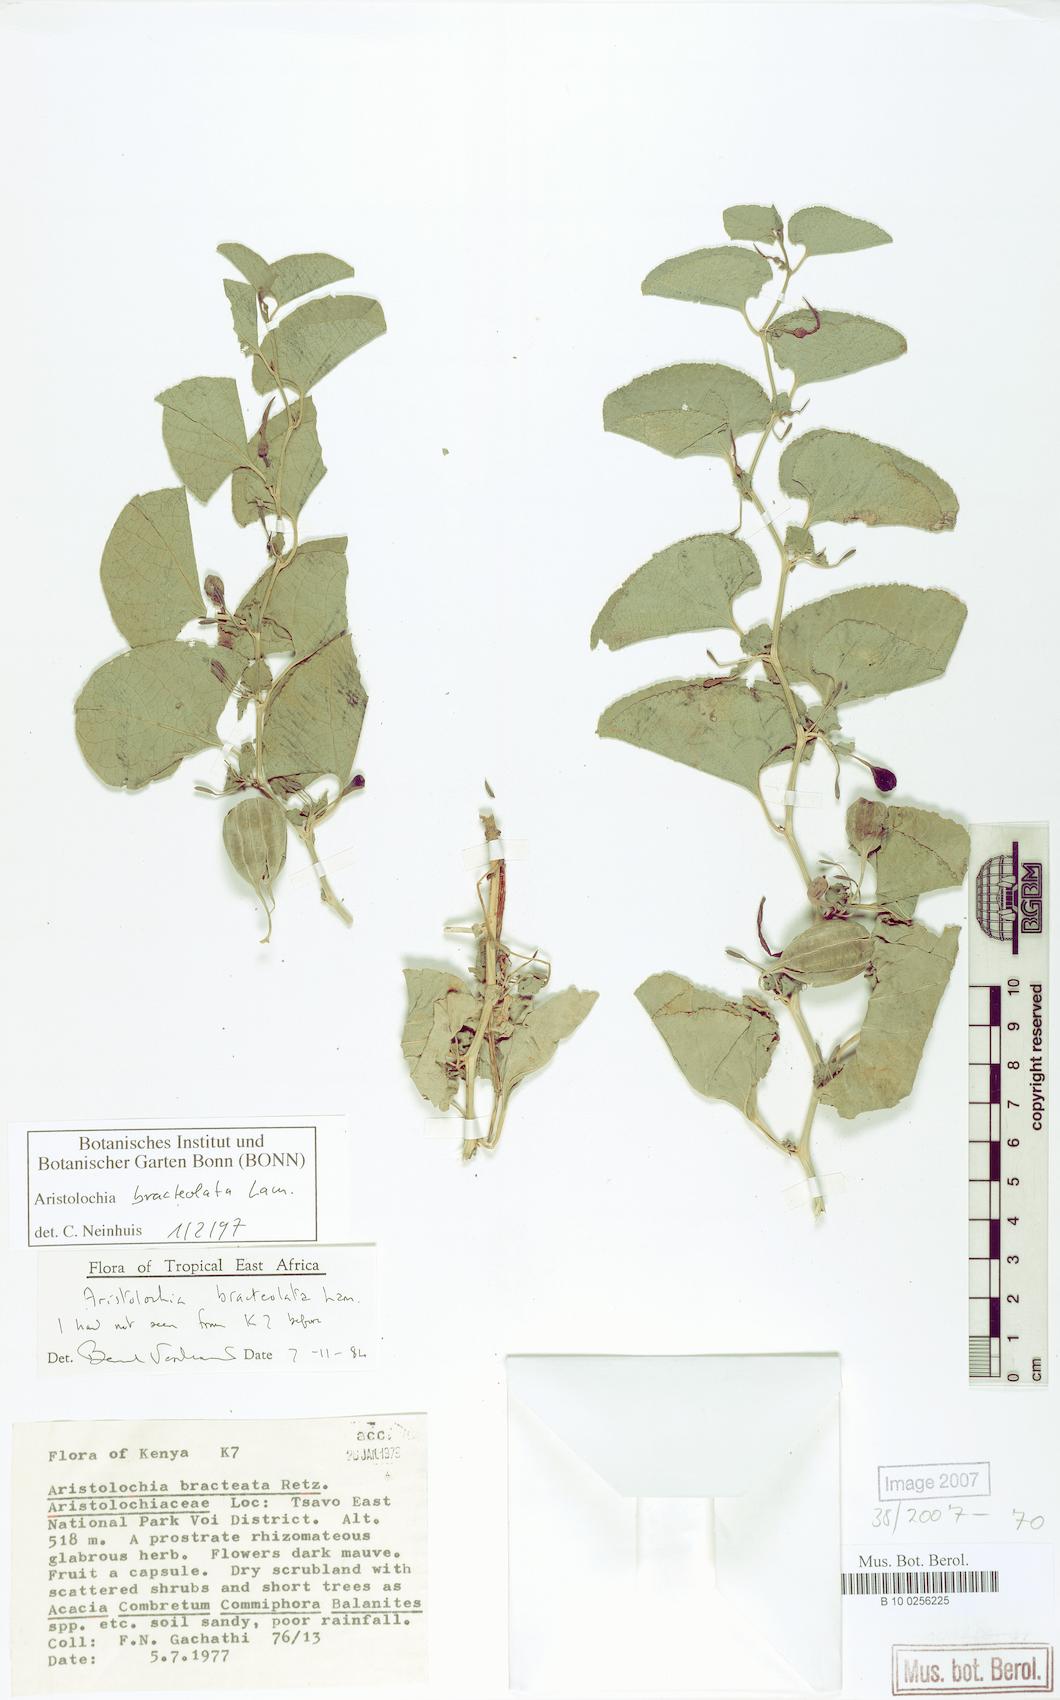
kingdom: Plantae
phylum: Tracheophyta
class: Magnoliopsida
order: Piperales
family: Aristolochiaceae
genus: Aristolochia
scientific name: Aristolochia bracteolata
